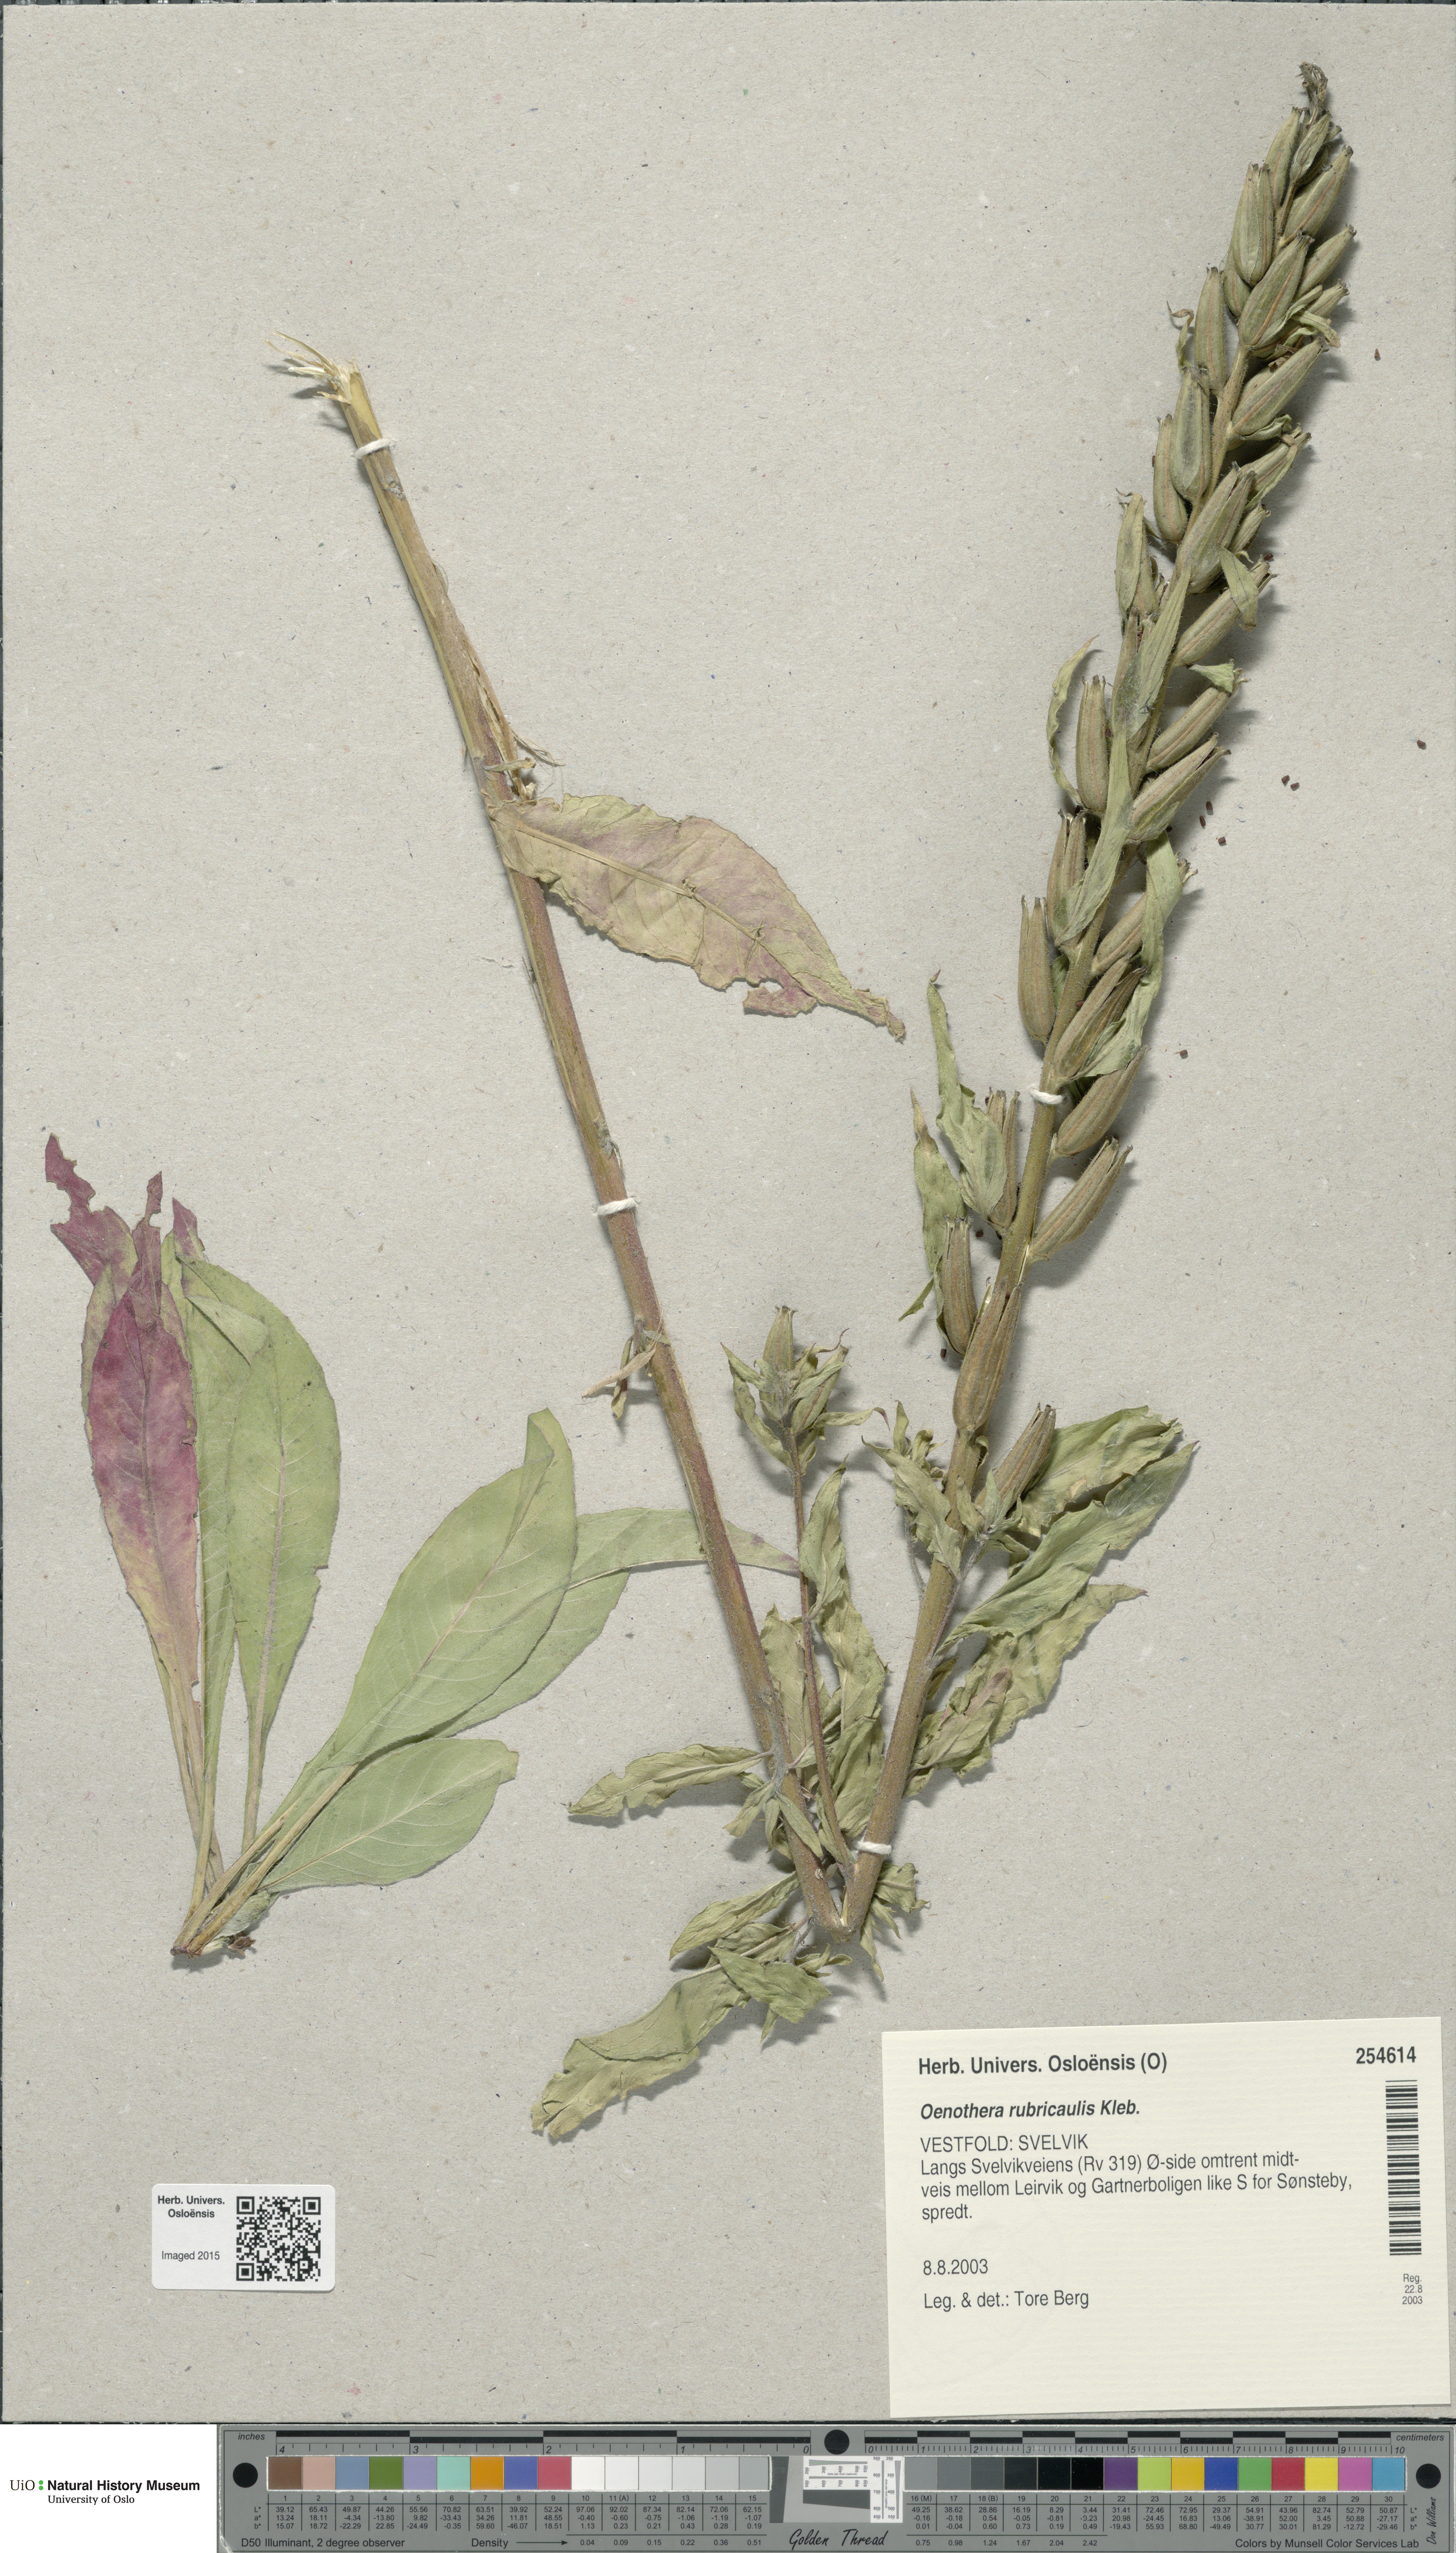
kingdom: Plantae
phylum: Tracheophyta
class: Magnoliopsida
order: Myrtales
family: Onagraceae
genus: Oenothera
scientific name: Oenothera biennis
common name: Common evening-primrose
